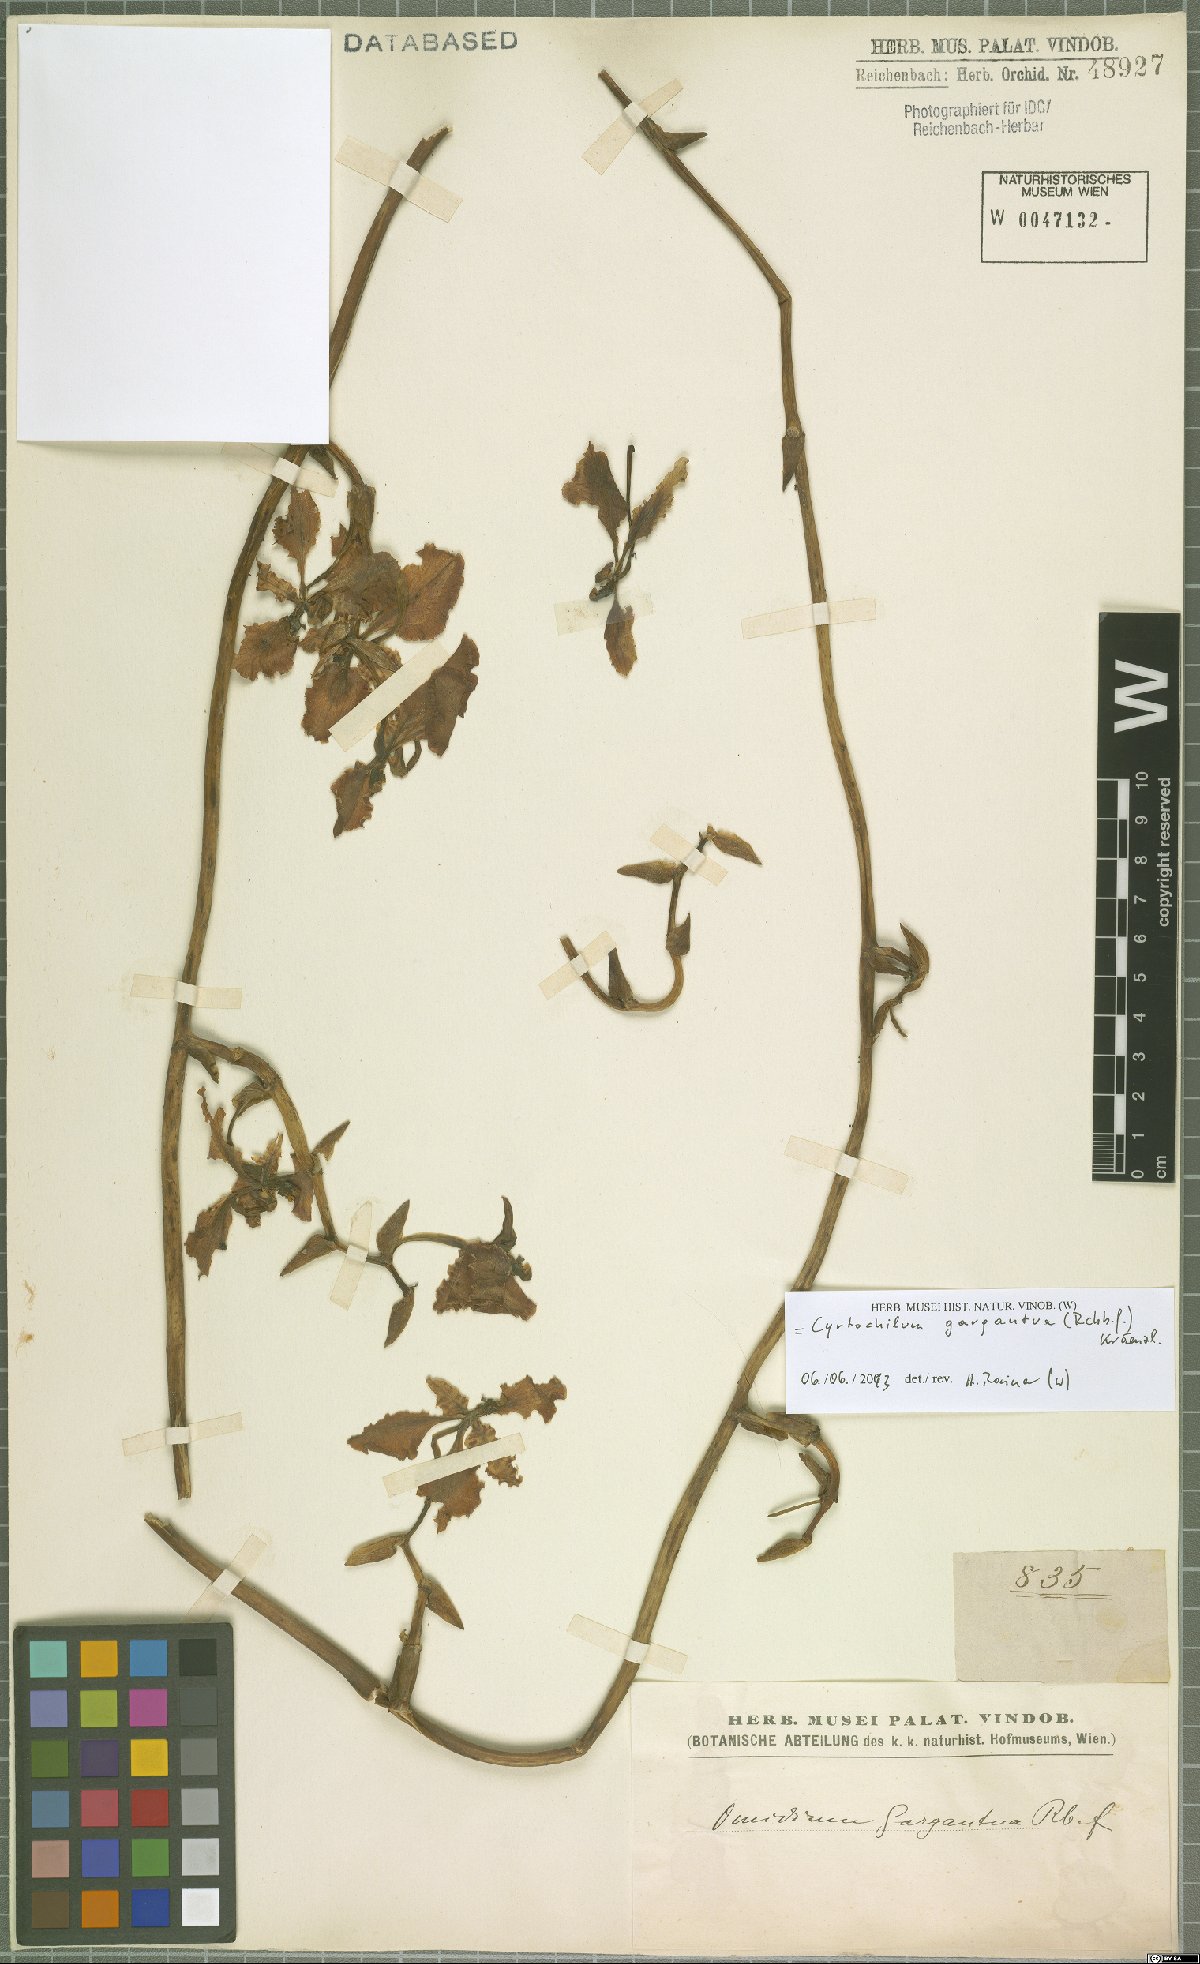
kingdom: Plantae
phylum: Tracheophyta
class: Liliopsida
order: Asparagales
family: Orchidaceae
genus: Cyrtochilum
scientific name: Cyrtochilum gargantua
